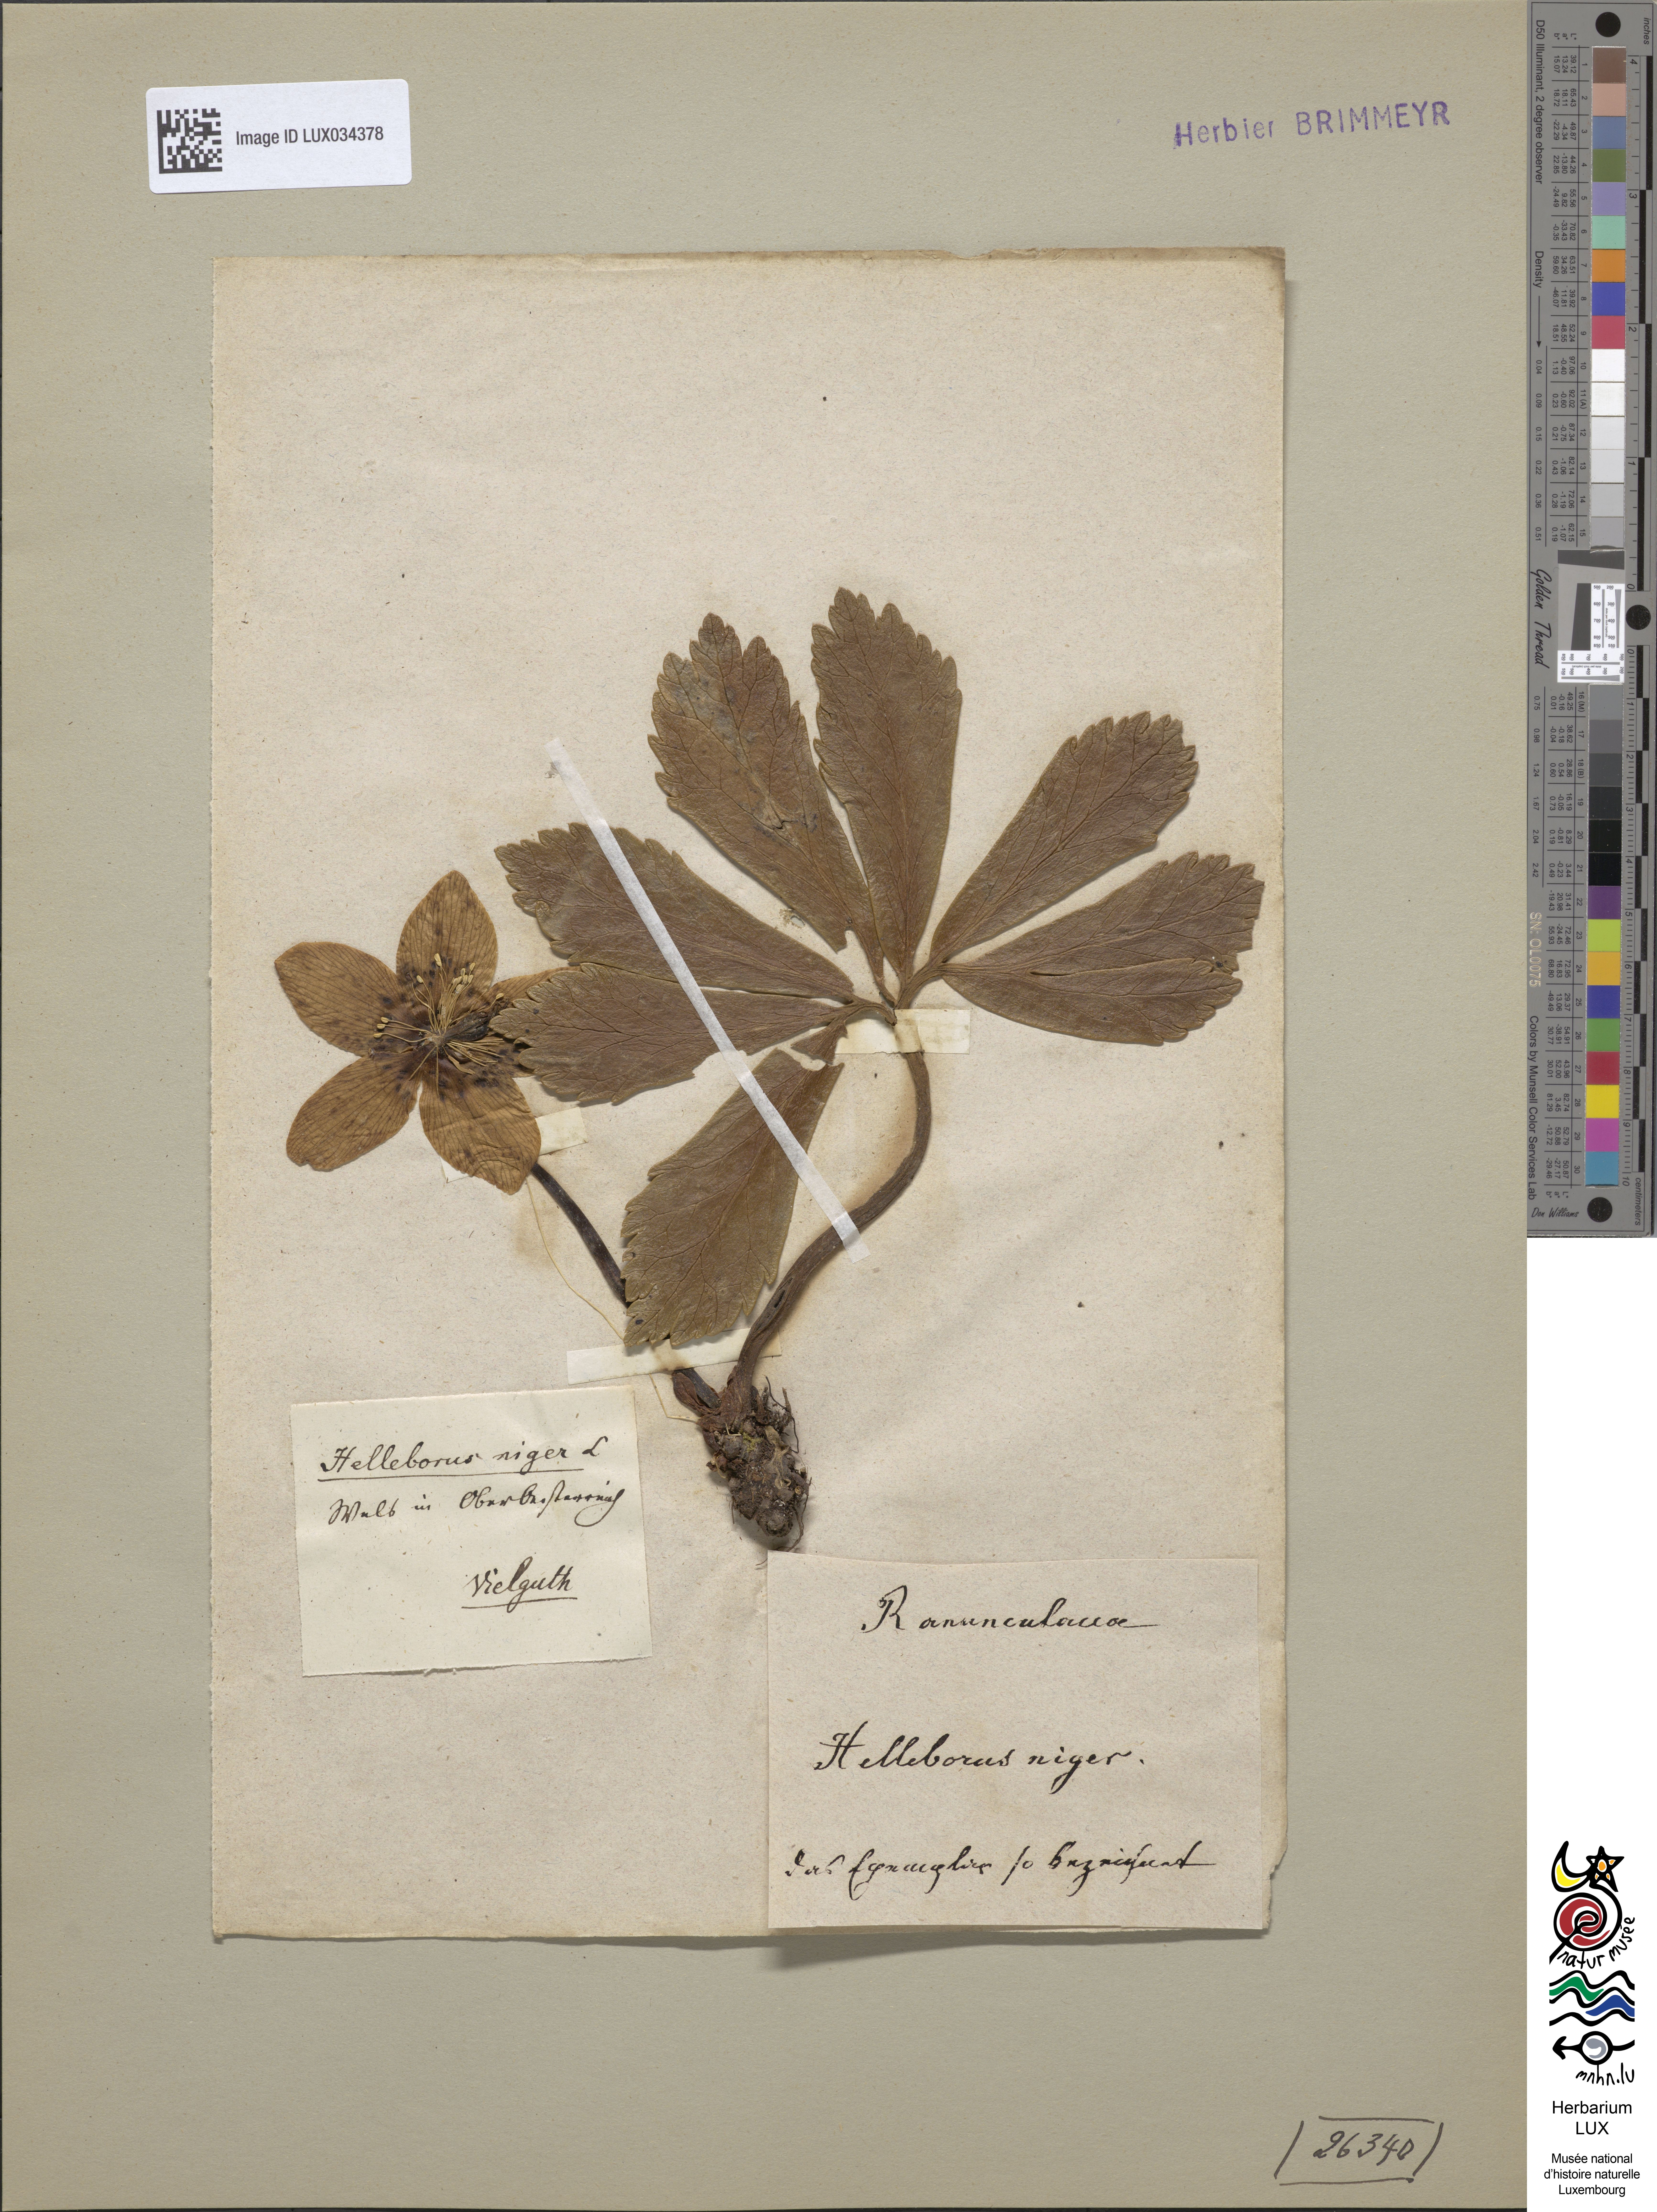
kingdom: Plantae
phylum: Tracheophyta
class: Magnoliopsida
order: Ranunculales
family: Ranunculaceae
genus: Helleborus
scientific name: Helleborus niger
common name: Black hellebore
